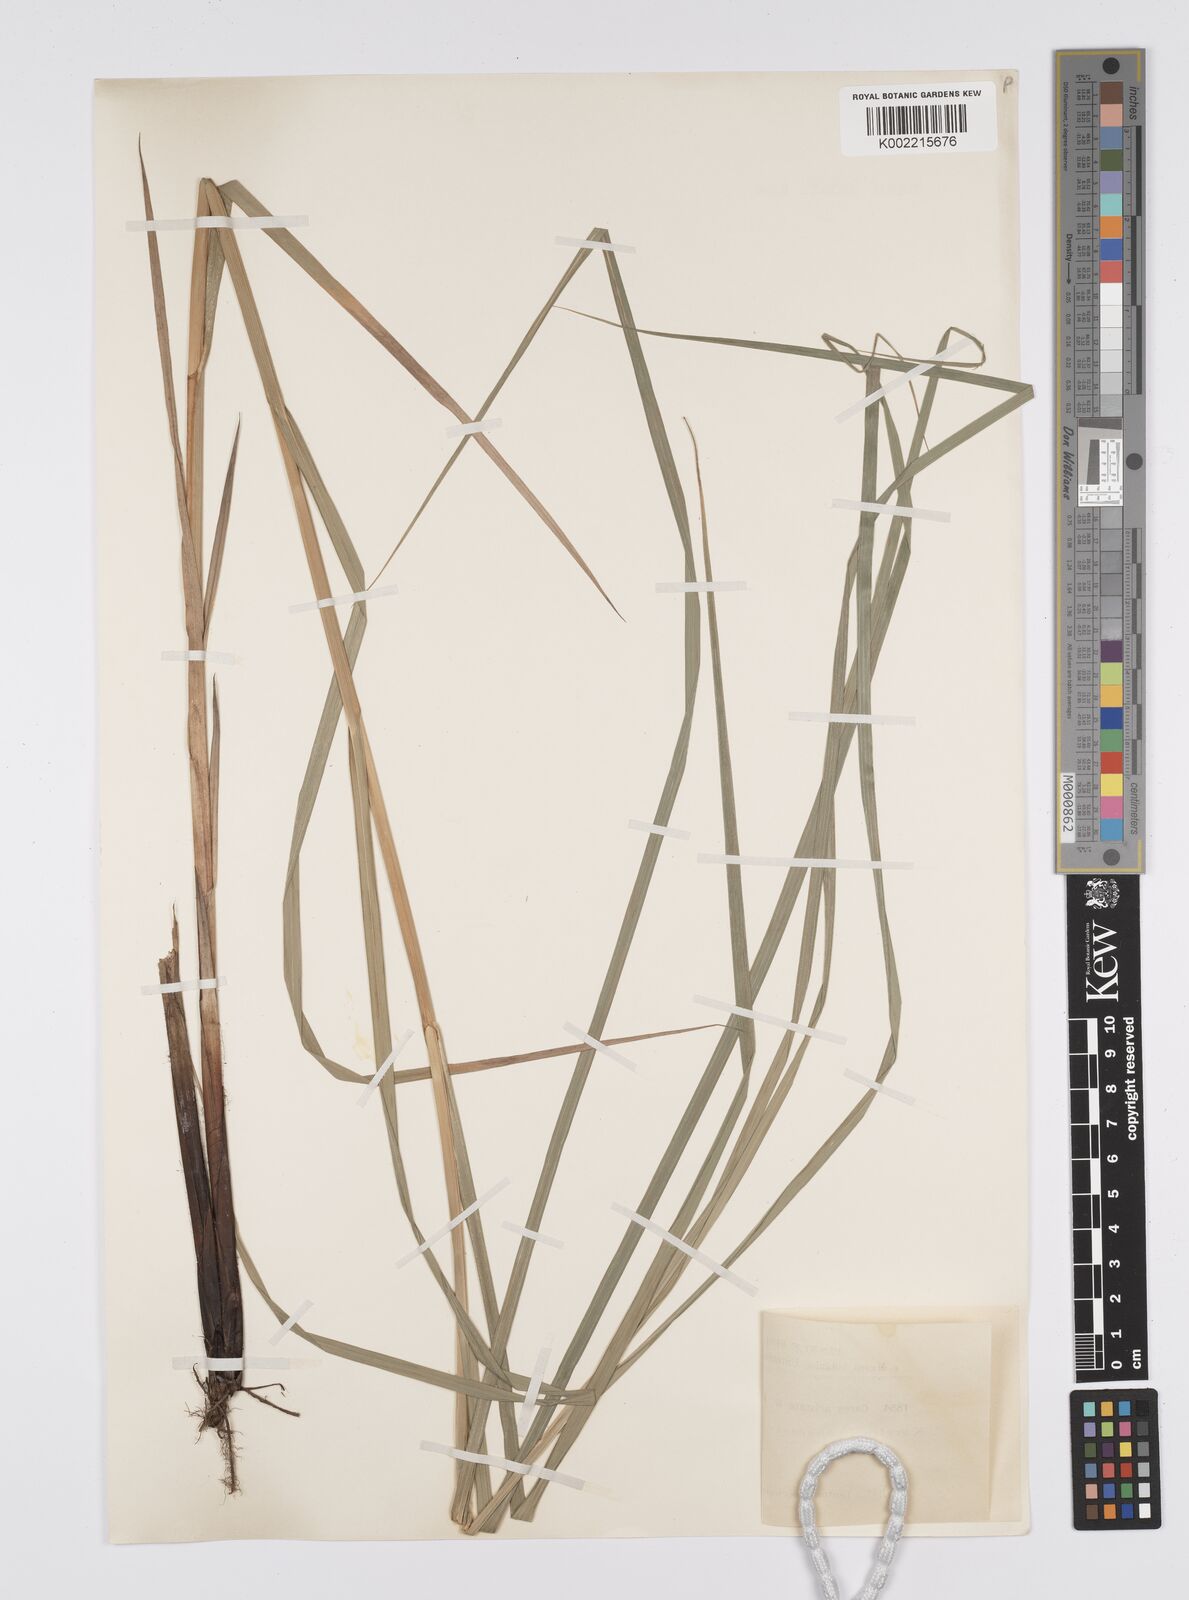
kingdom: Plantae
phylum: Tracheophyta
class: Liliopsida
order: Poales
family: Cyperaceae
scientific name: Cyperaceae
